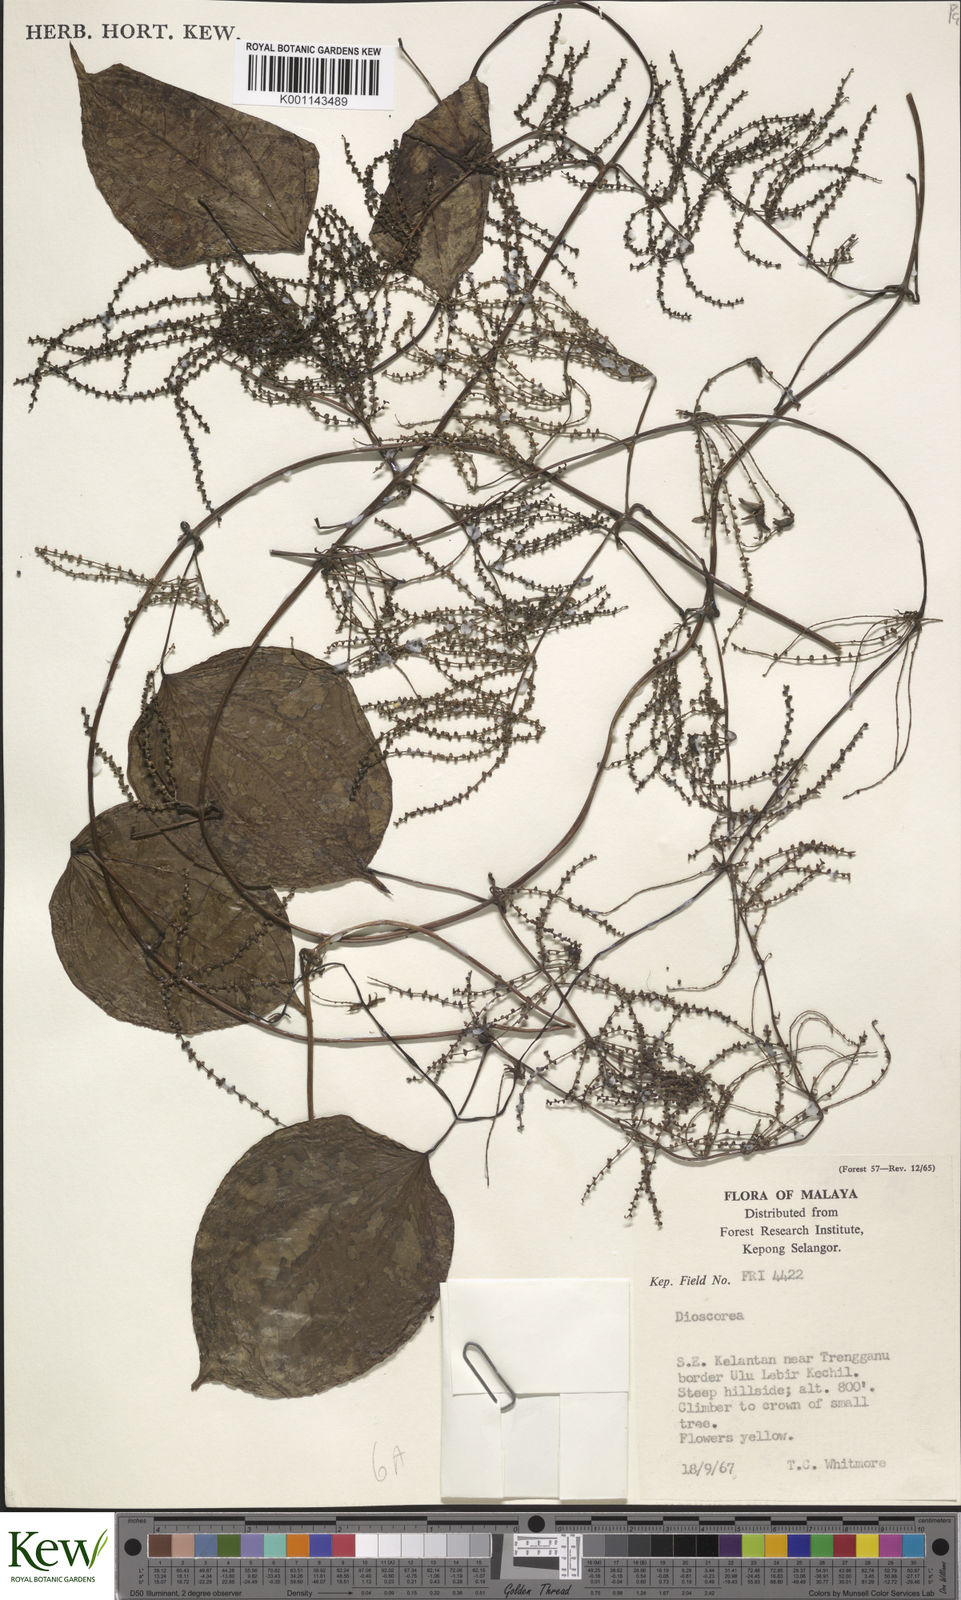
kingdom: Plantae
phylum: Tracheophyta
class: Liliopsida
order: Dioscoreales
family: Dioscoreaceae
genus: Dioscorea
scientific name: Dioscorea
